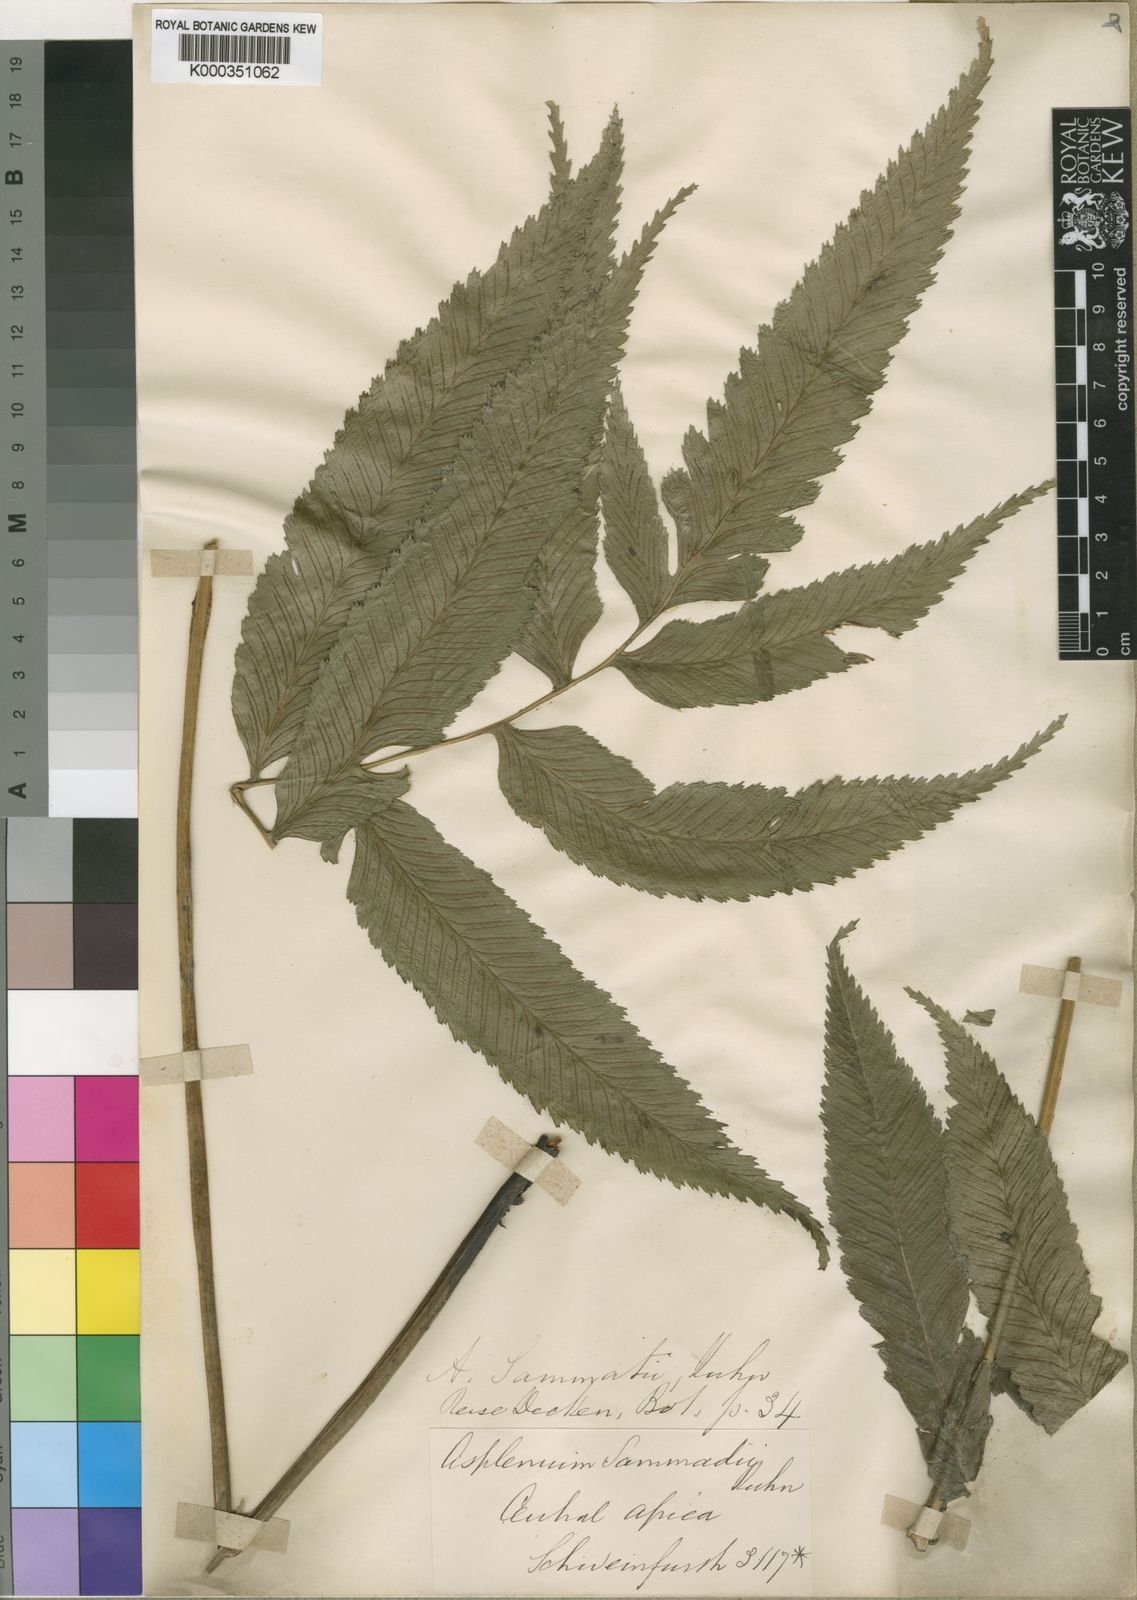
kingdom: Plantae
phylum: Tracheophyta
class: Polypodiopsida
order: Polypodiales
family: Athyriaceae
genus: Diplazium
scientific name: Diplazium sammatii
